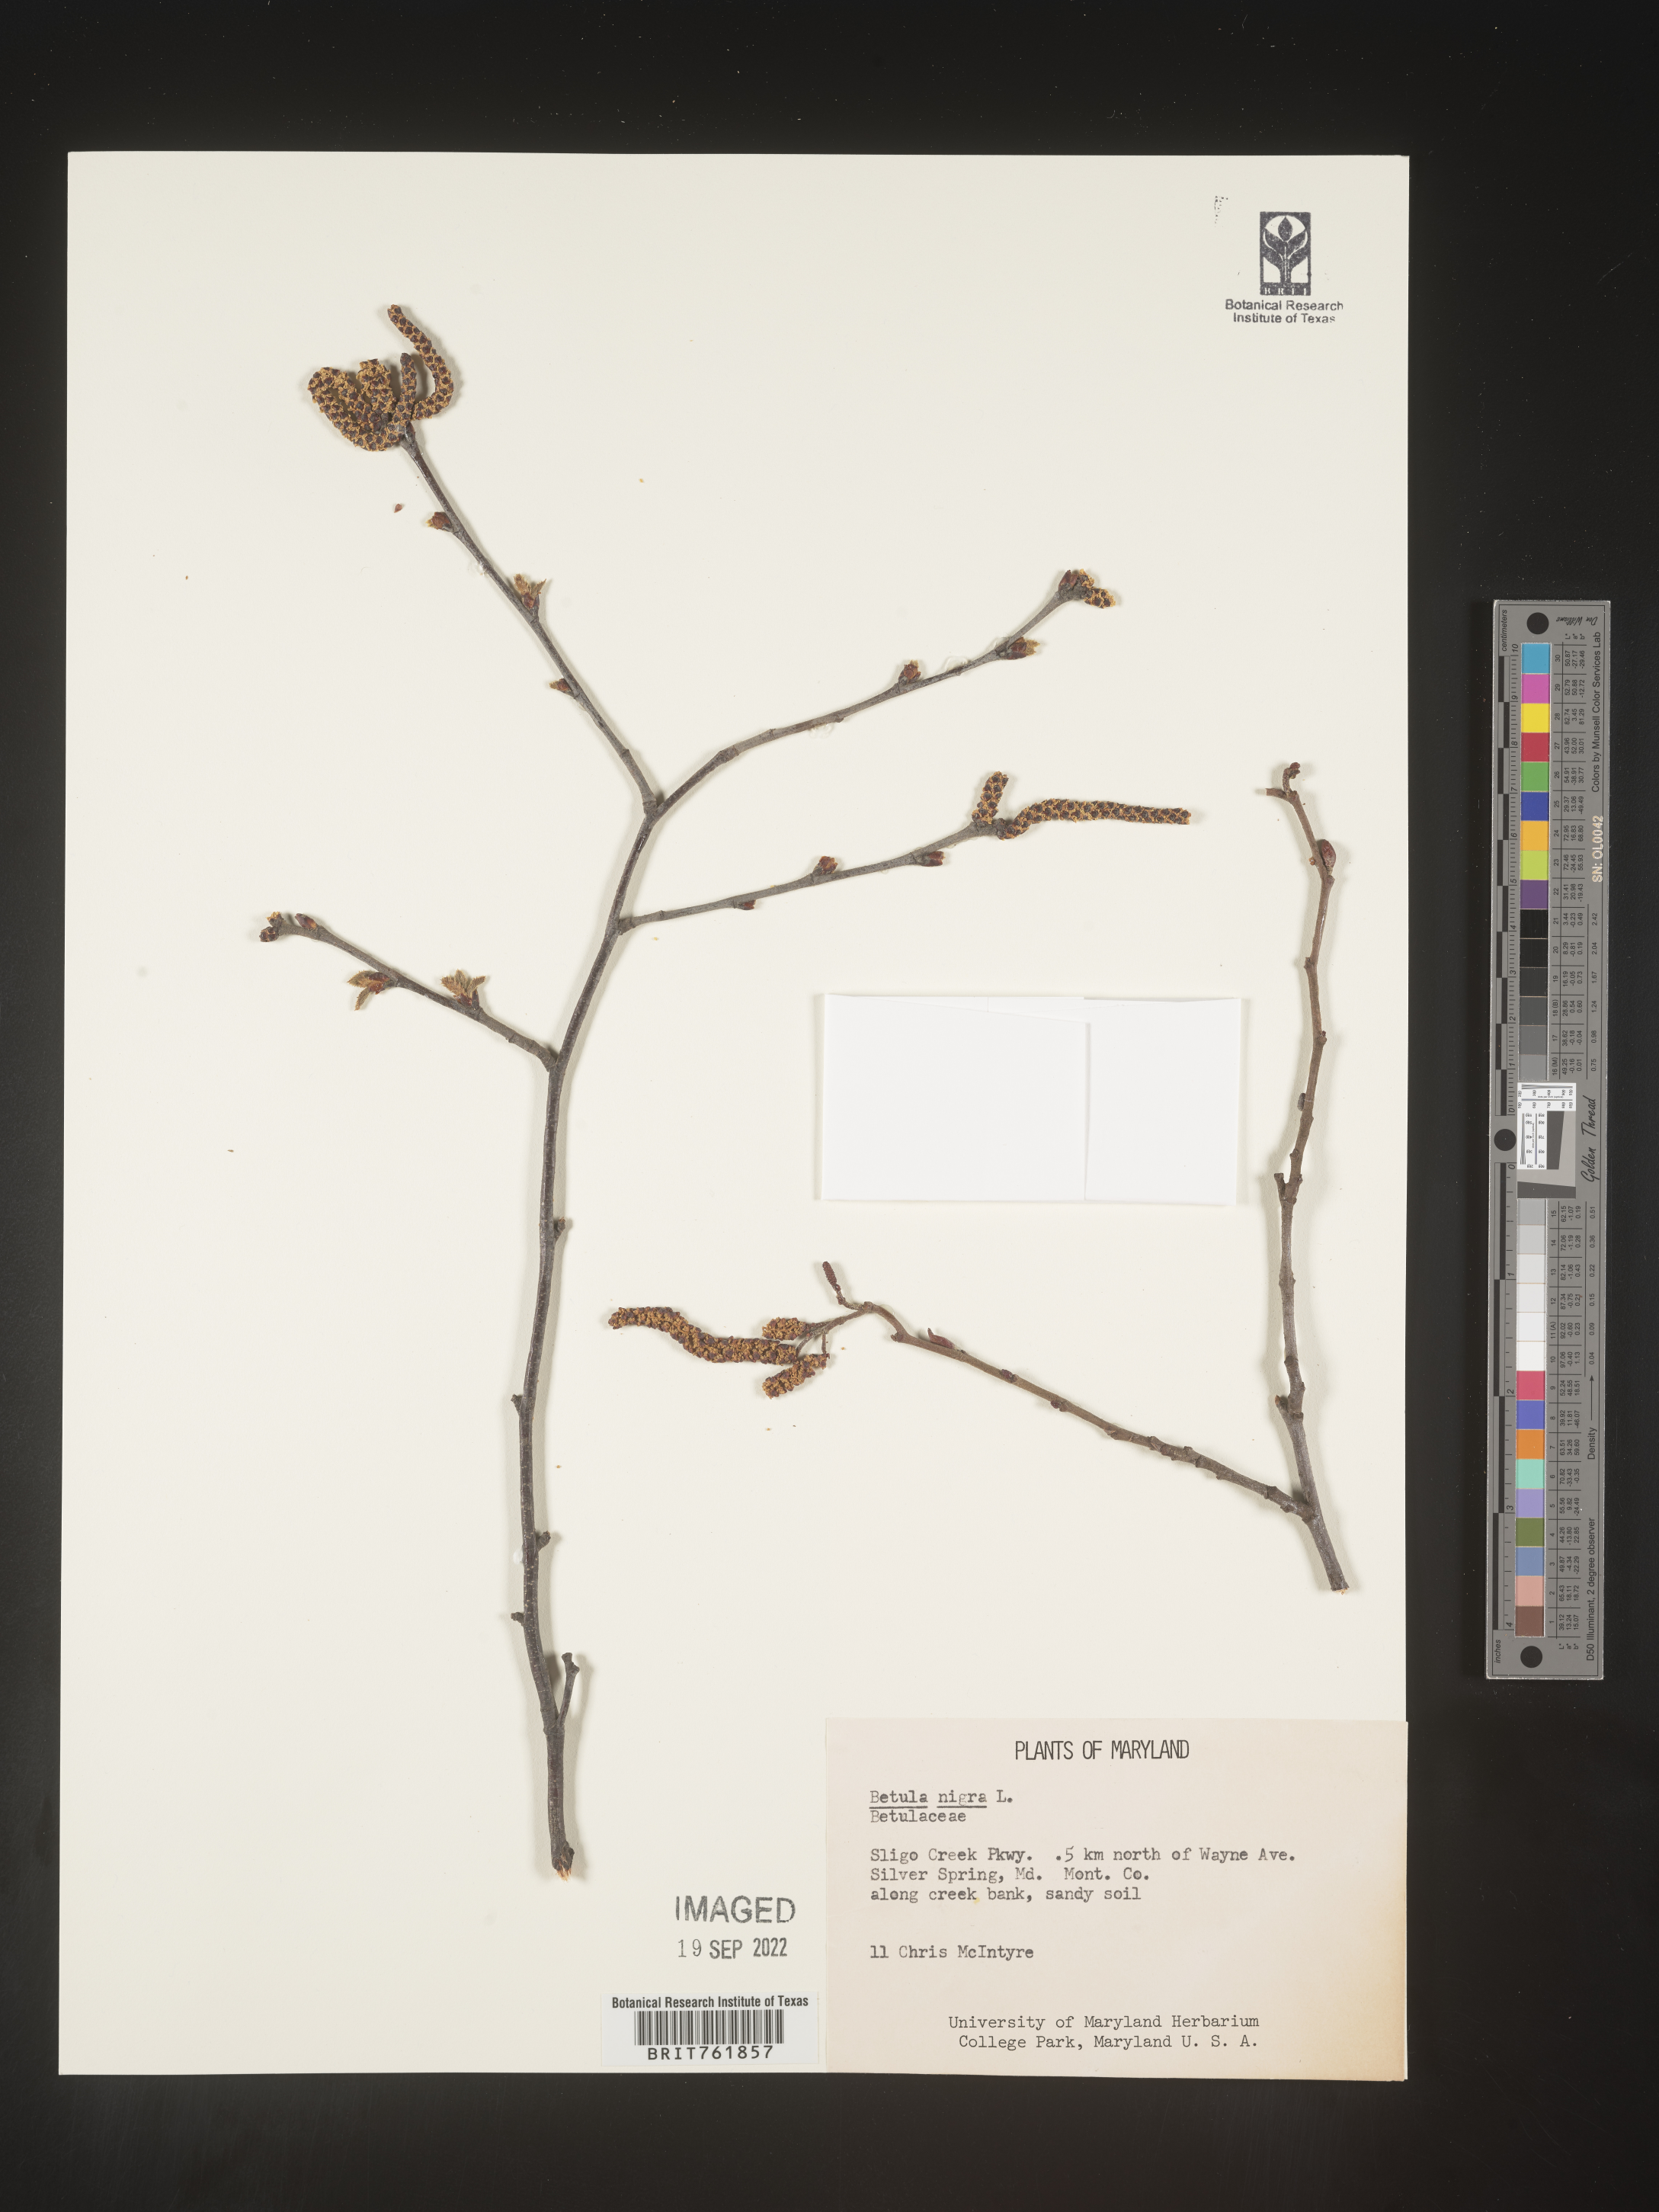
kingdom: Plantae
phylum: Tracheophyta
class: Magnoliopsida
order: Fagales
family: Betulaceae
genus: Betula
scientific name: Betula nigra
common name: Black birch
